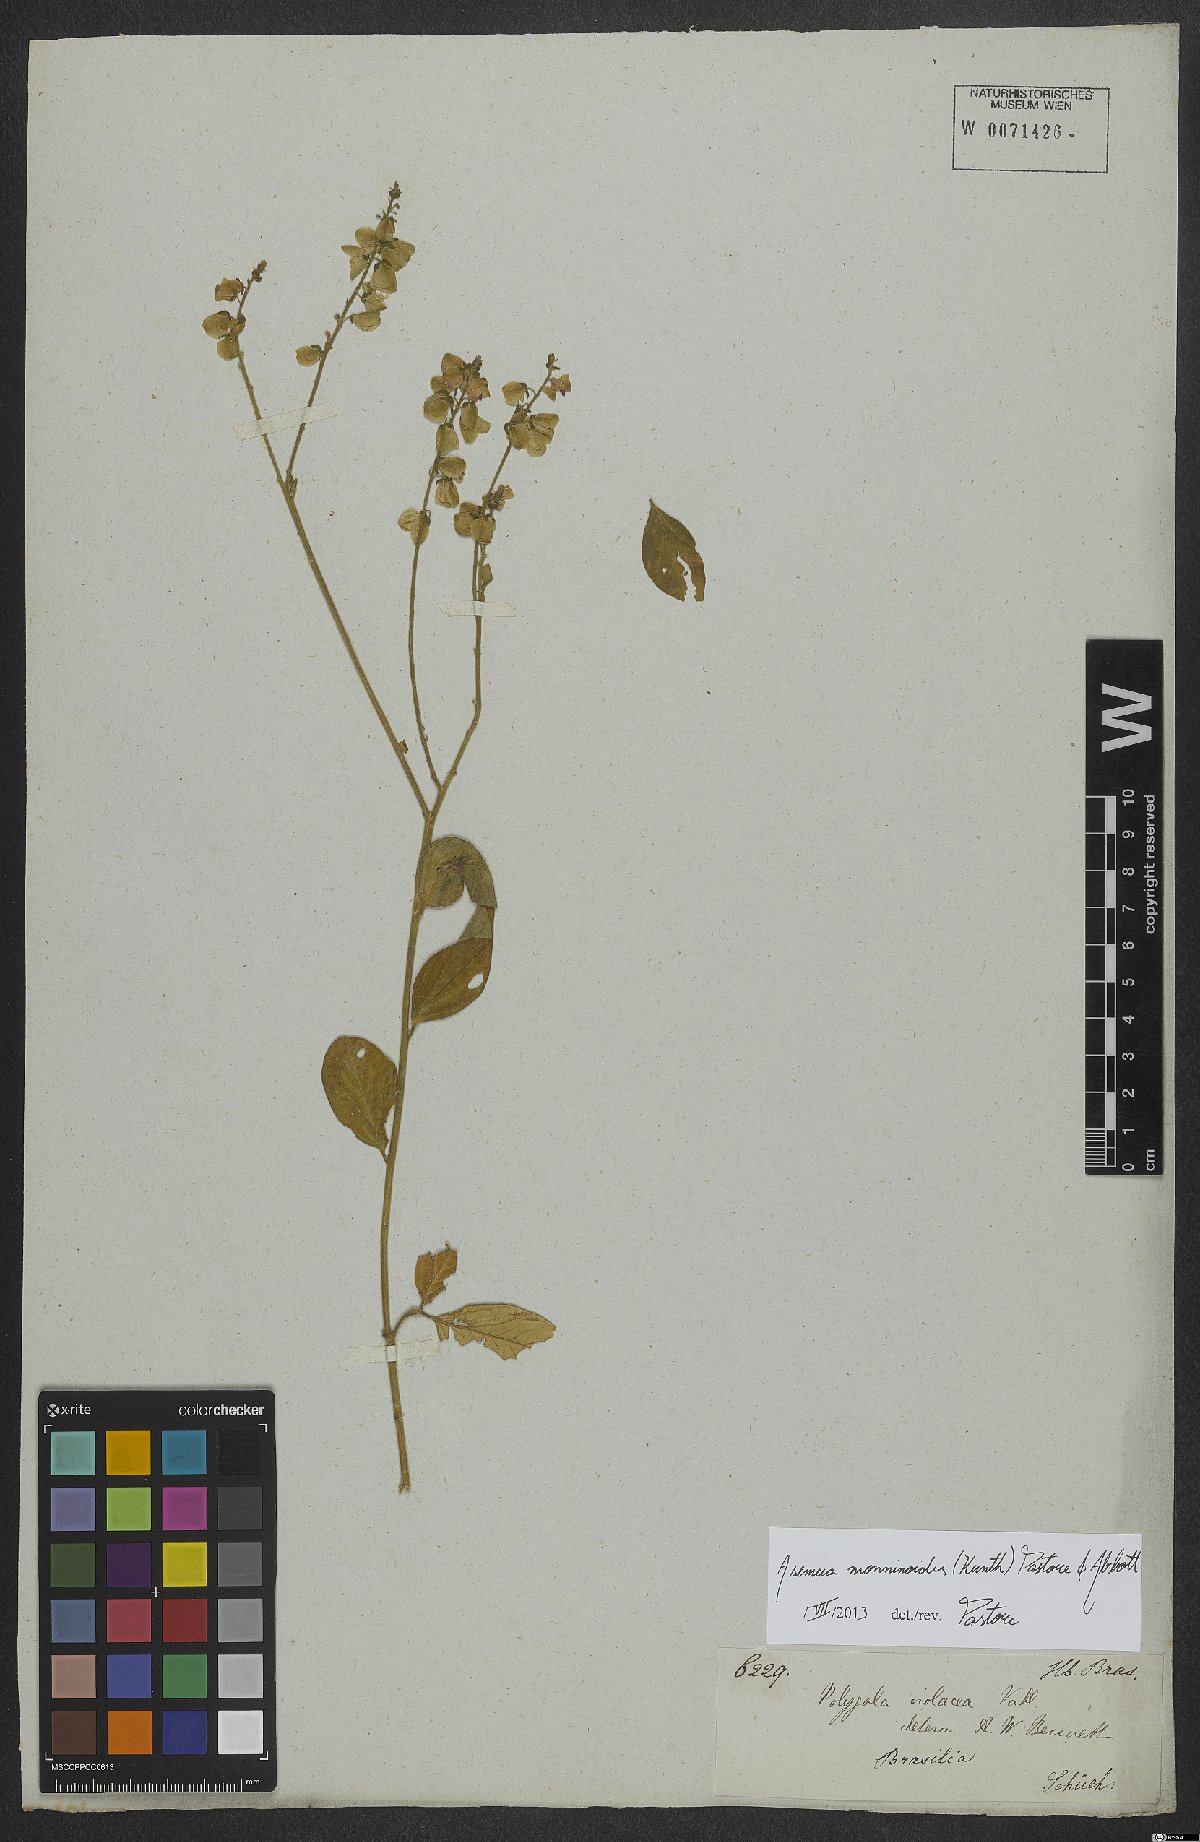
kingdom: Plantae
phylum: Tracheophyta
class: Magnoliopsida
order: Fabales
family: Polygalaceae
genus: Asemeia
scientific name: Asemeia monninoides
